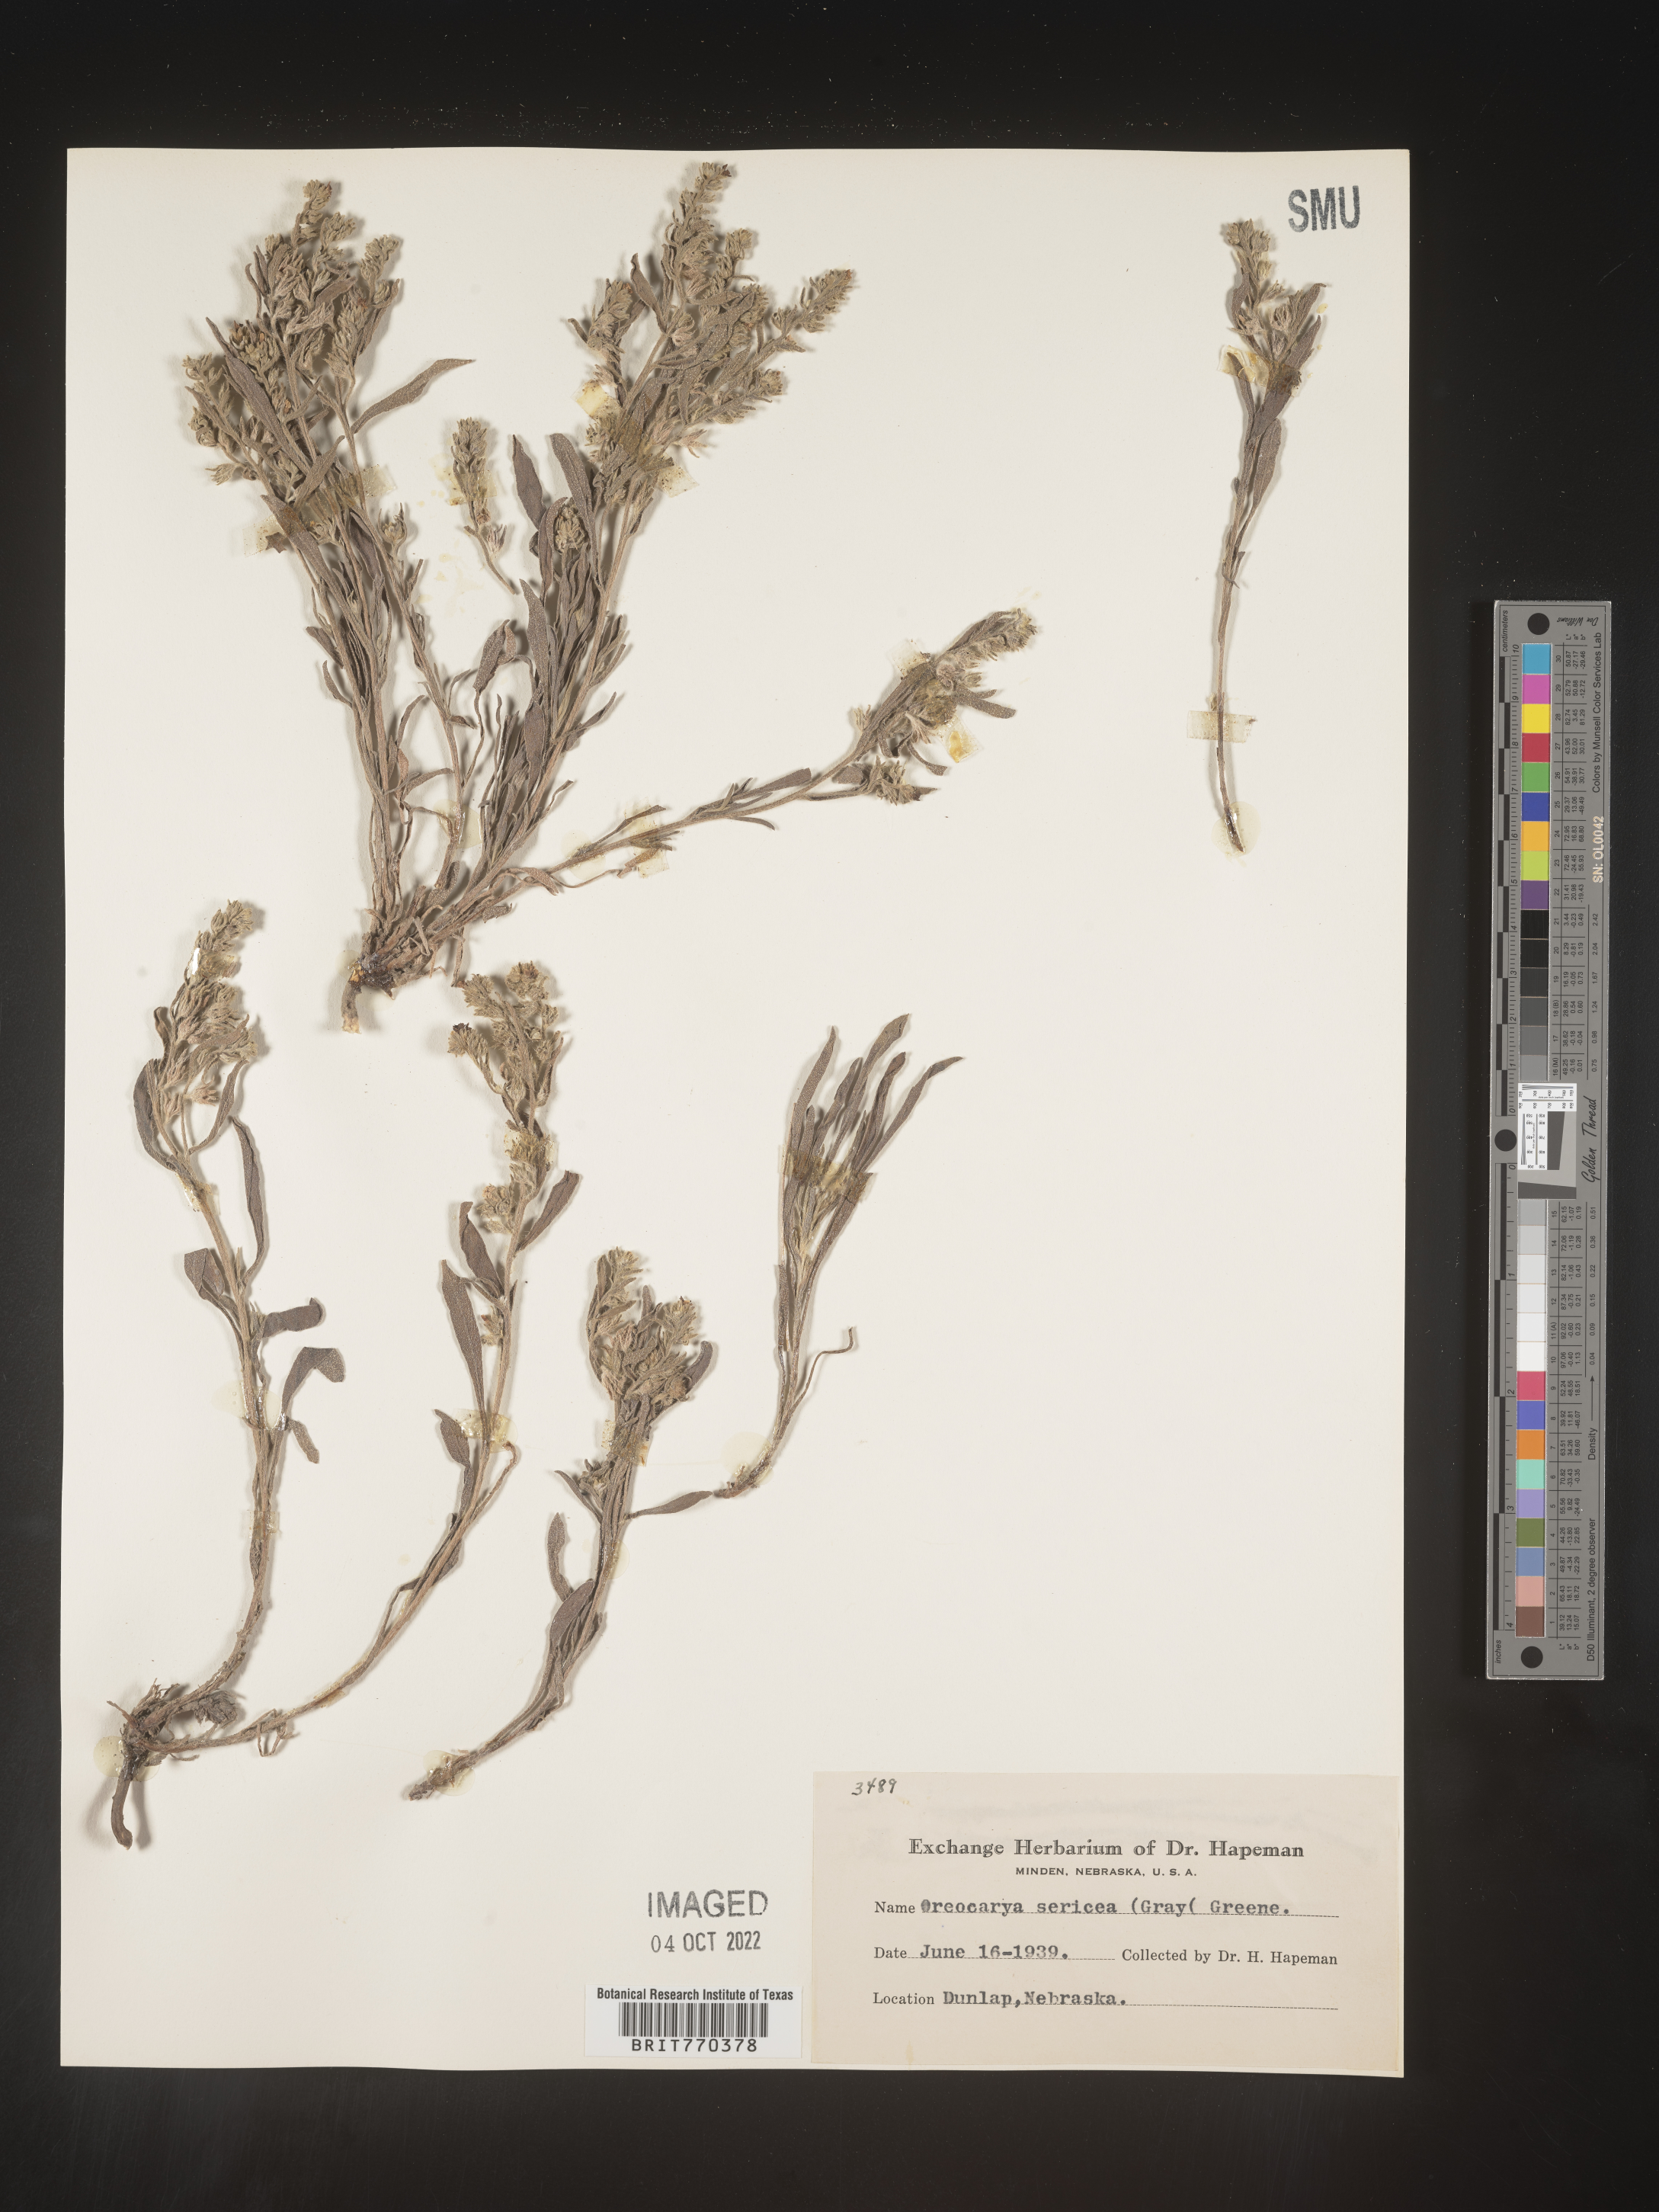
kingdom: Plantae
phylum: Tracheophyta
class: Magnoliopsida
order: Boraginales
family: Boraginaceae
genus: Oreocarya
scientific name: Oreocarya
